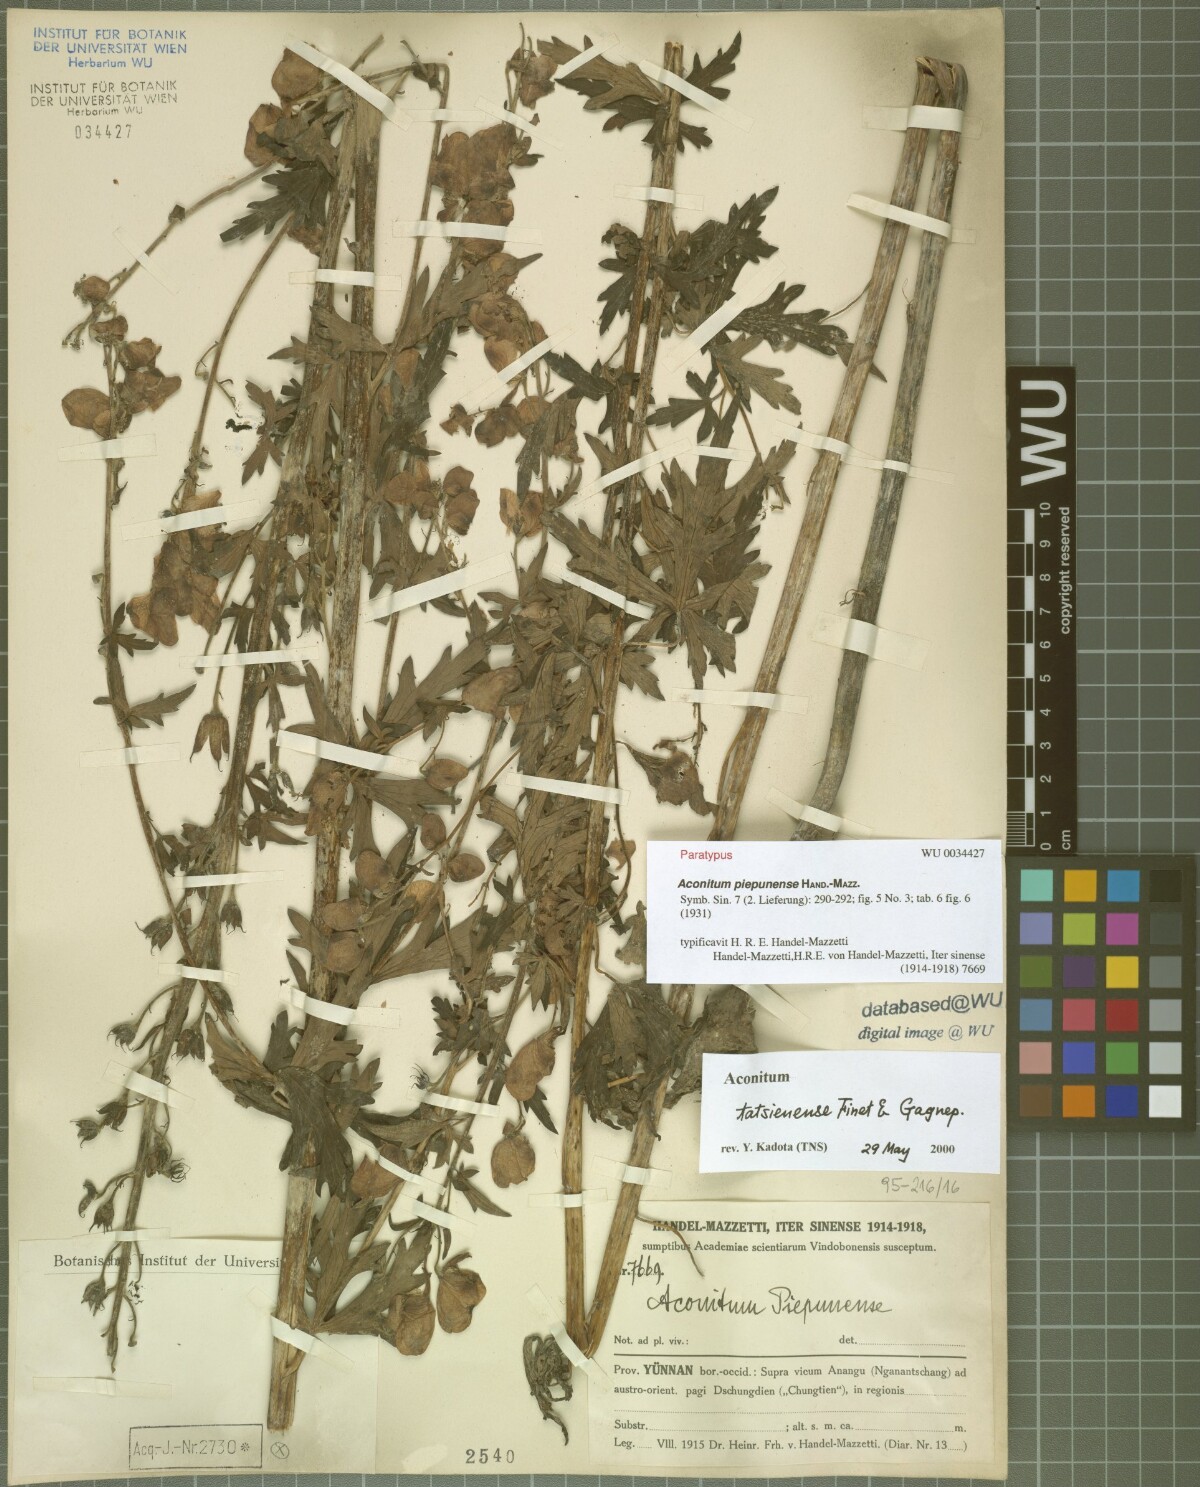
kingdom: Plantae
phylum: Tracheophyta
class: Magnoliopsida
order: Ranunculales
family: Ranunculaceae
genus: Aconitum
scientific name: Aconitum piepunense
